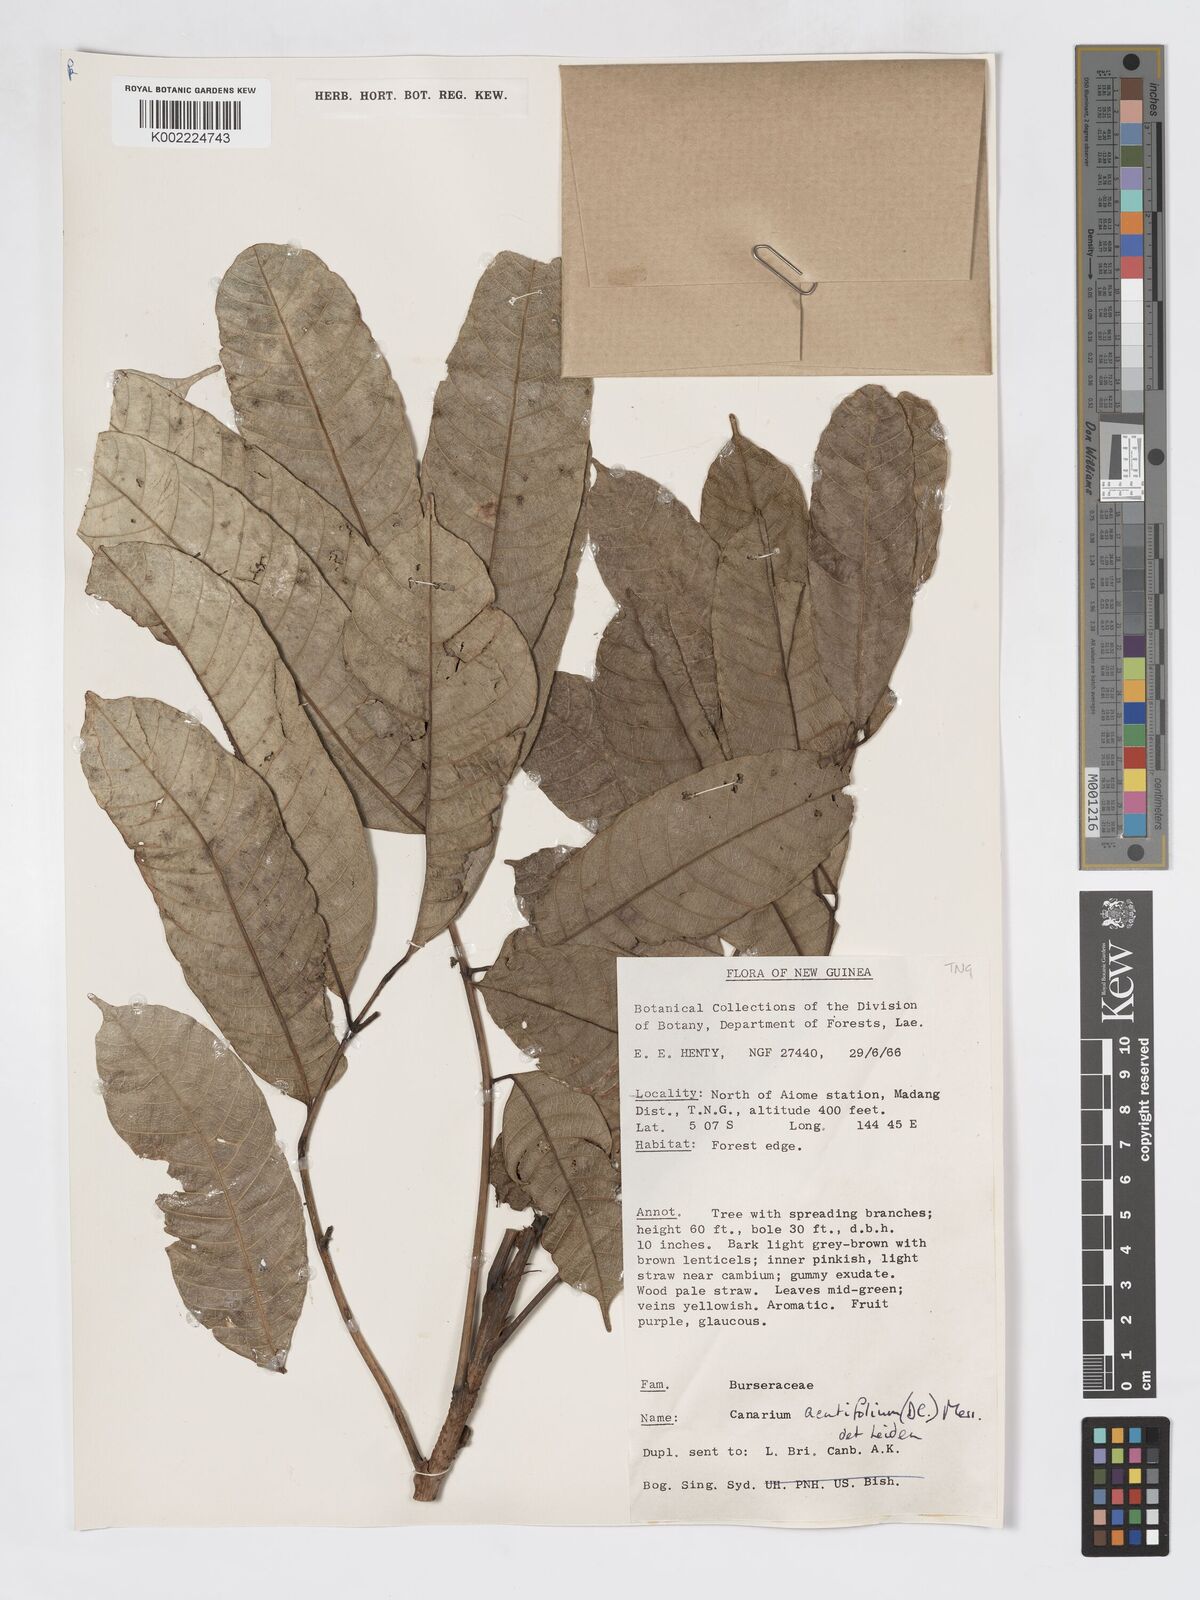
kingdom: Plantae
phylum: Tracheophyta
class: Magnoliopsida
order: Sapindales
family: Burseraceae
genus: Canarium
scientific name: Canarium acutifolium
